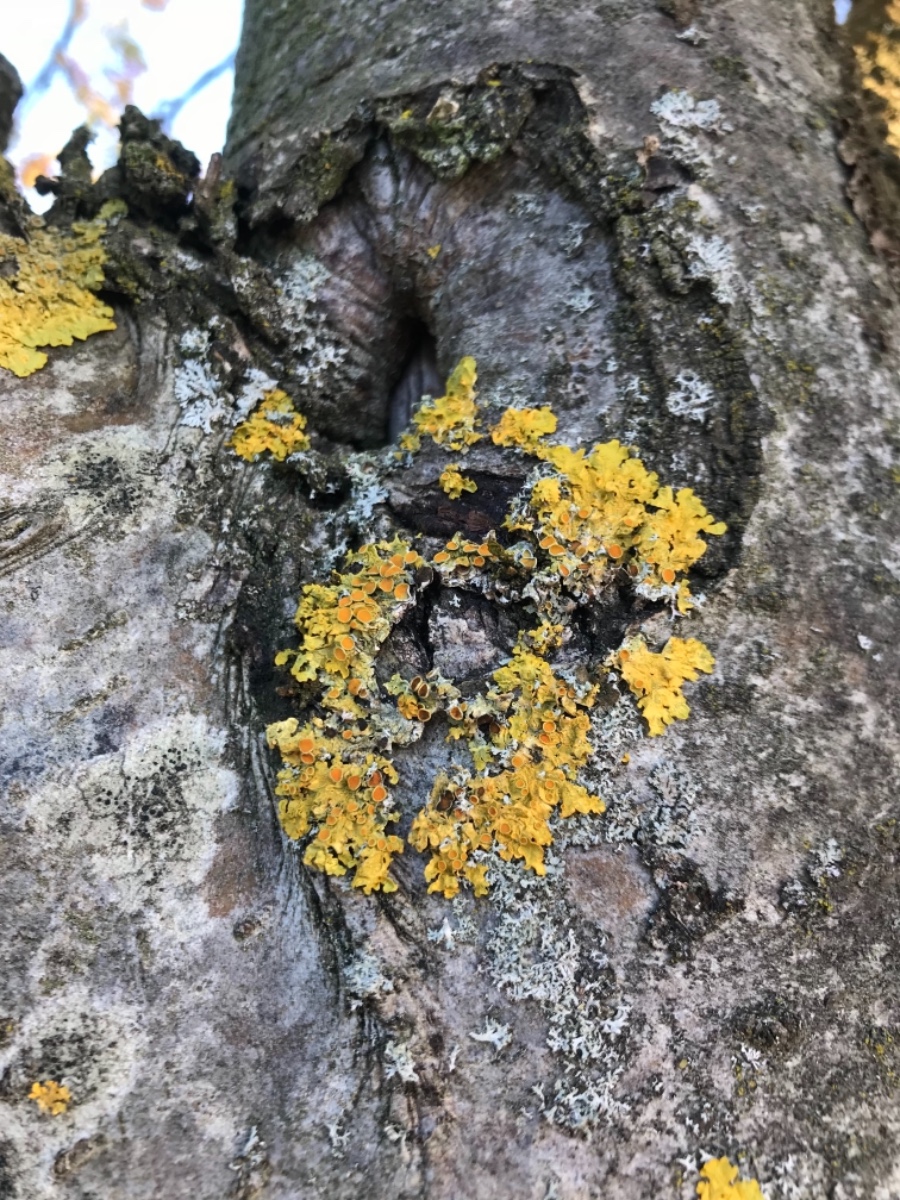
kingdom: Fungi
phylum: Ascomycota
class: Lecanoromycetes
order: Teloschistales
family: Teloschistaceae
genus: Xanthoria
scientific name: Xanthoria parietina
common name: almindelig væggelav
